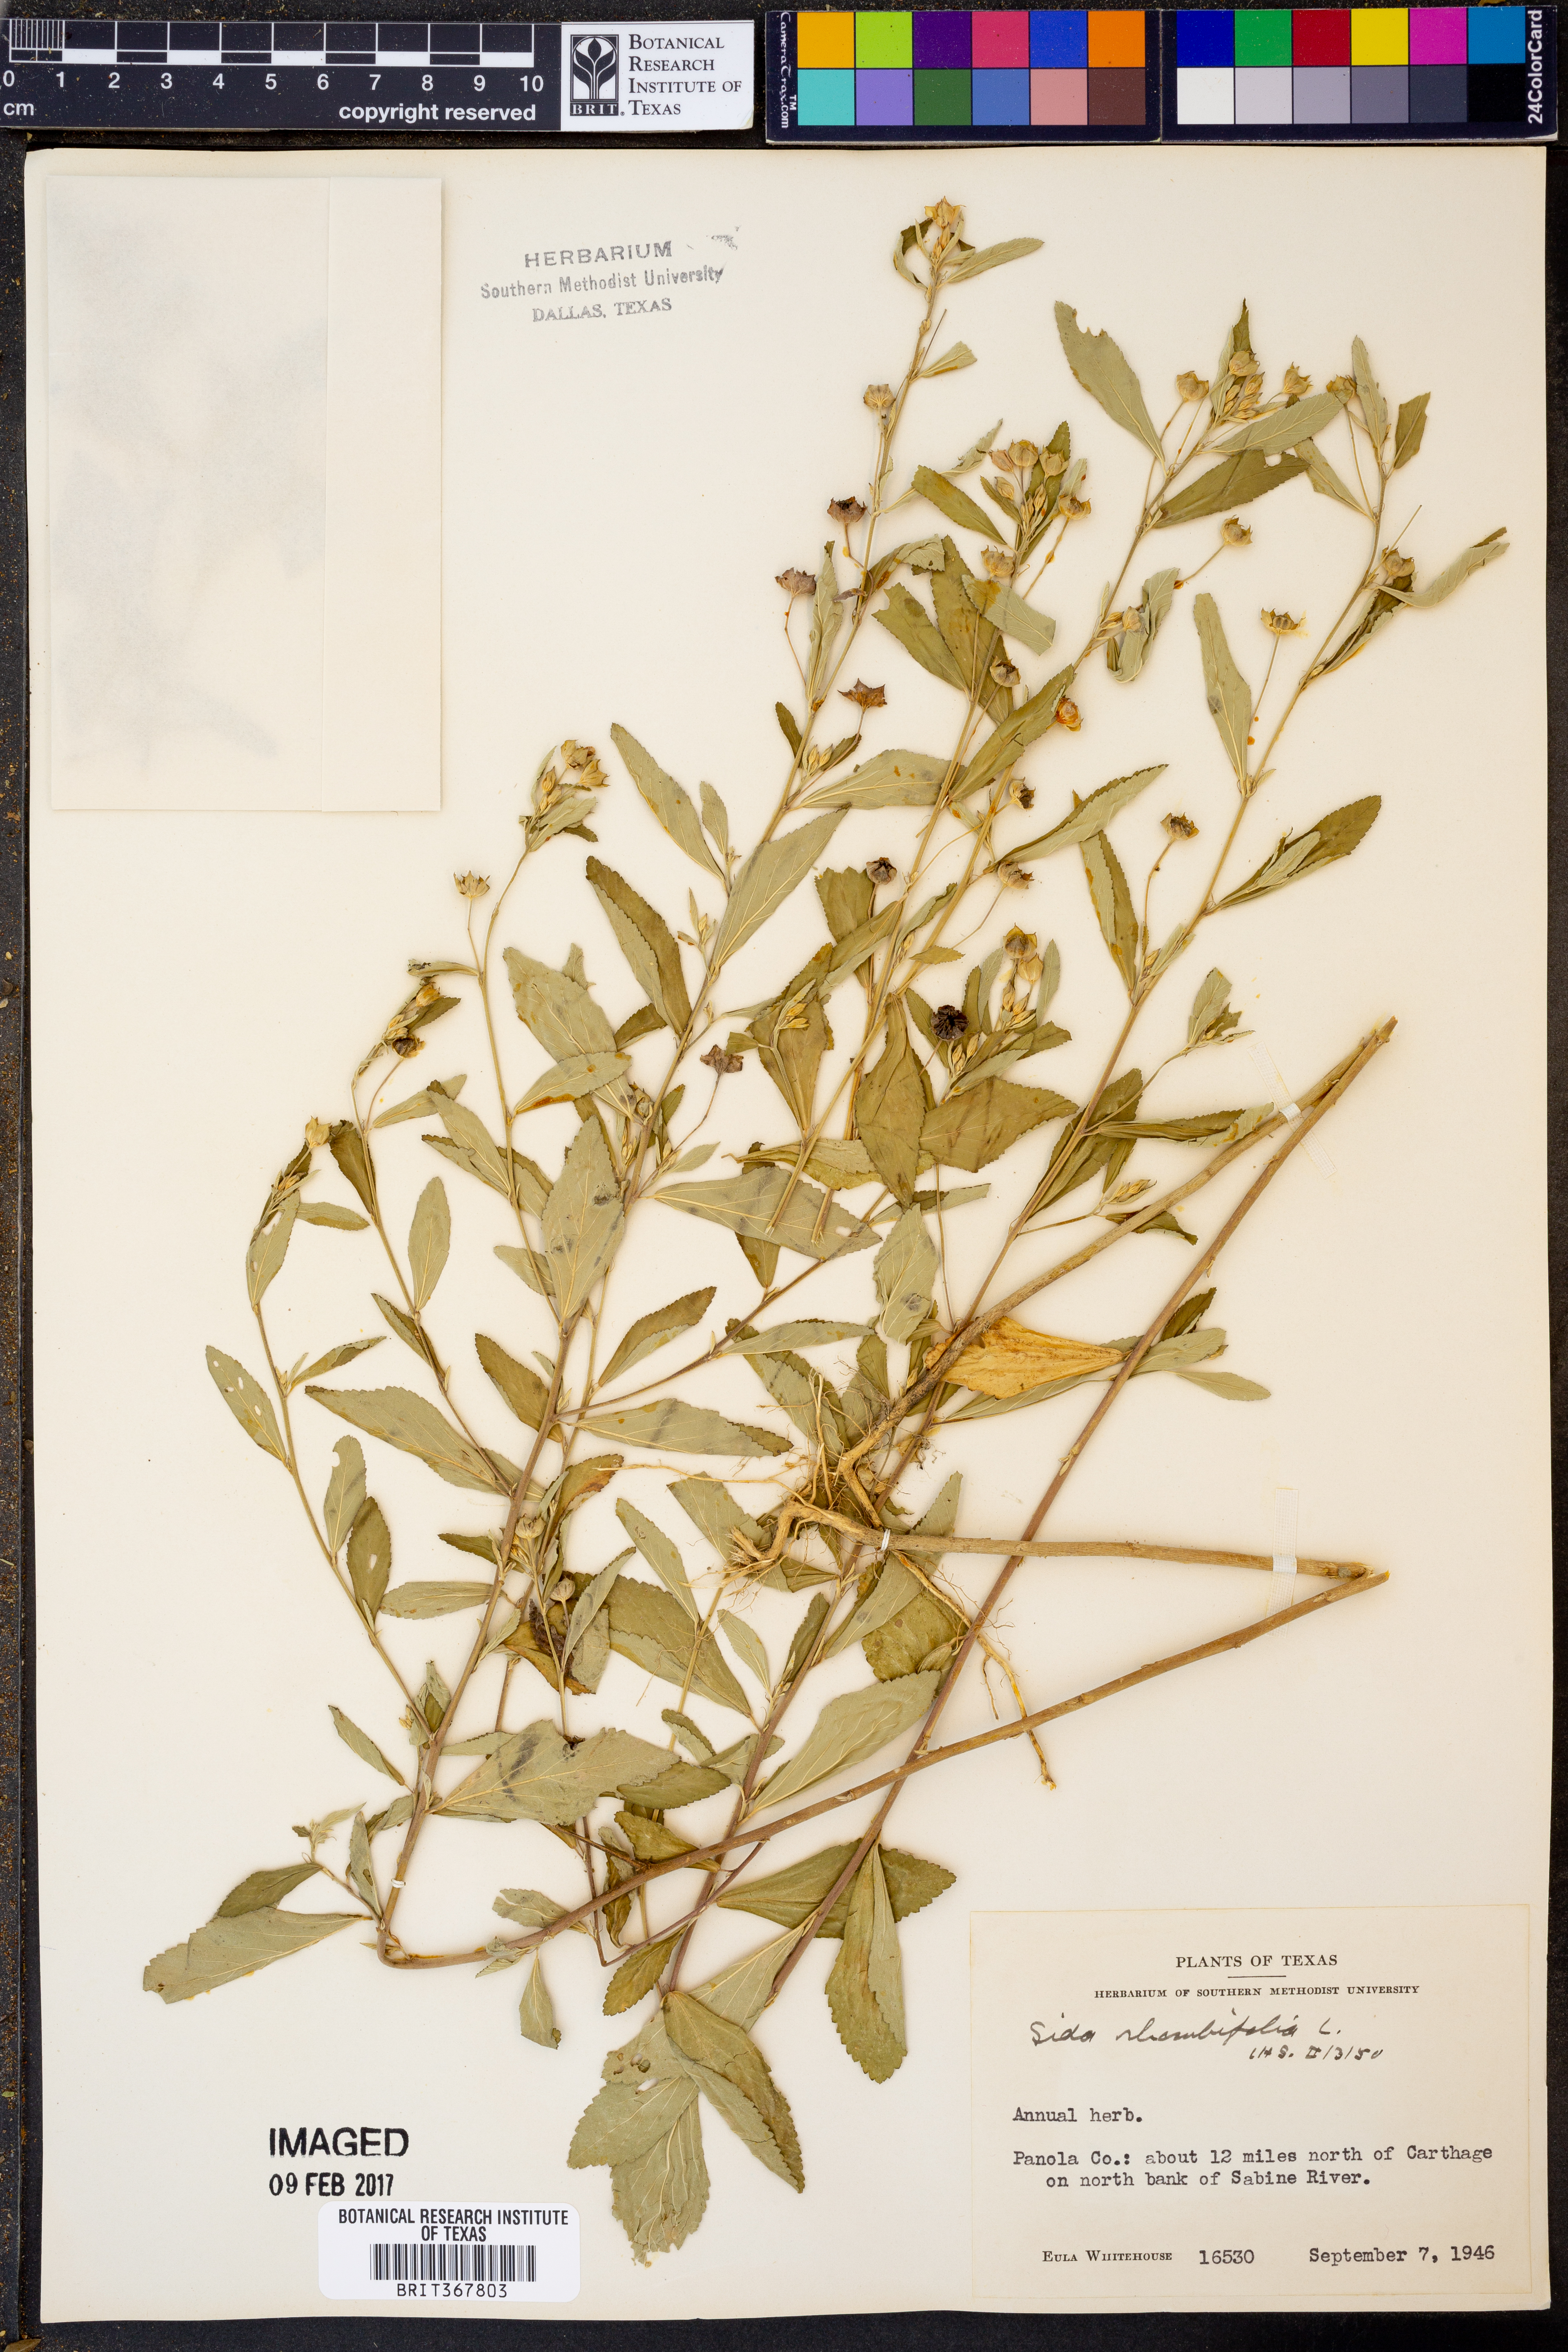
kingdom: Plantae
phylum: Tracheophyta
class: Magnoliopsida
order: Malvales
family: Malvaceae
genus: Sida
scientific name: Sida rhombifolia
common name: Queensland-hemp
